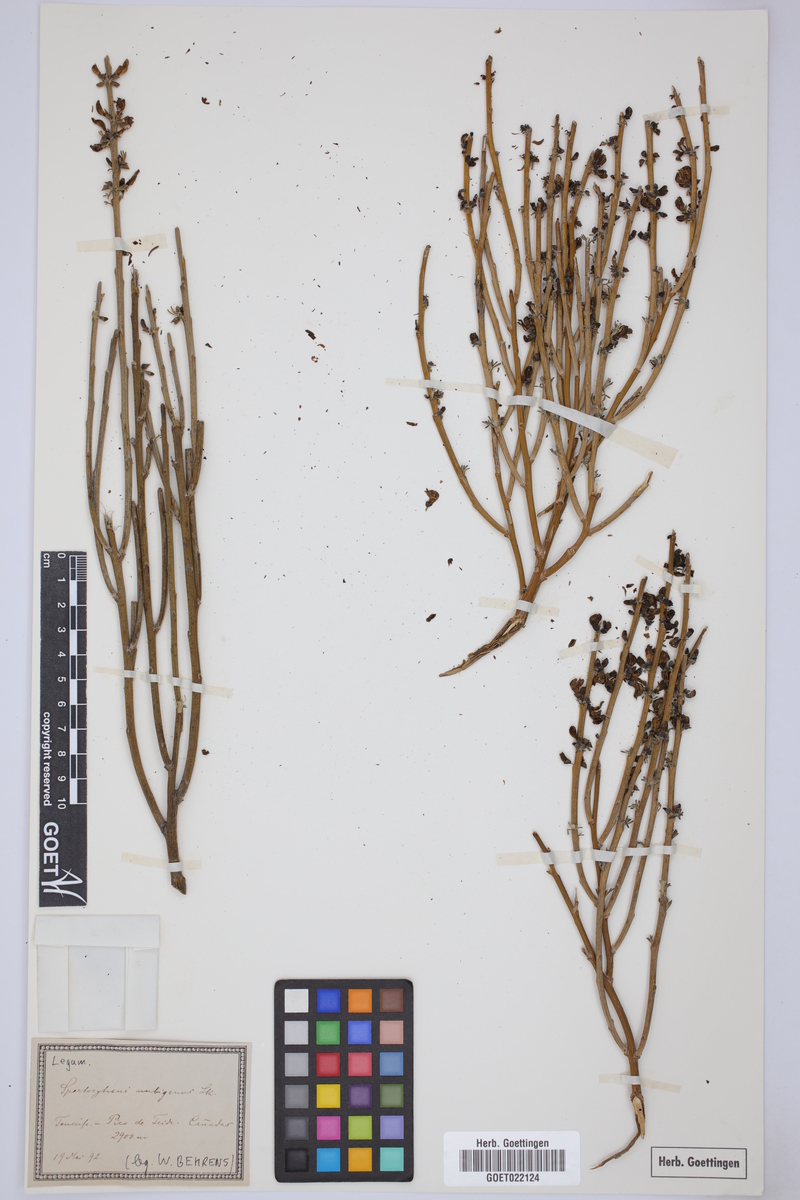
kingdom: Plantae
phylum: Tracheophyta
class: Magnoliopsida
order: Fabales
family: Fabaceae
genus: Cytisus
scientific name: Cytisus supranubius
